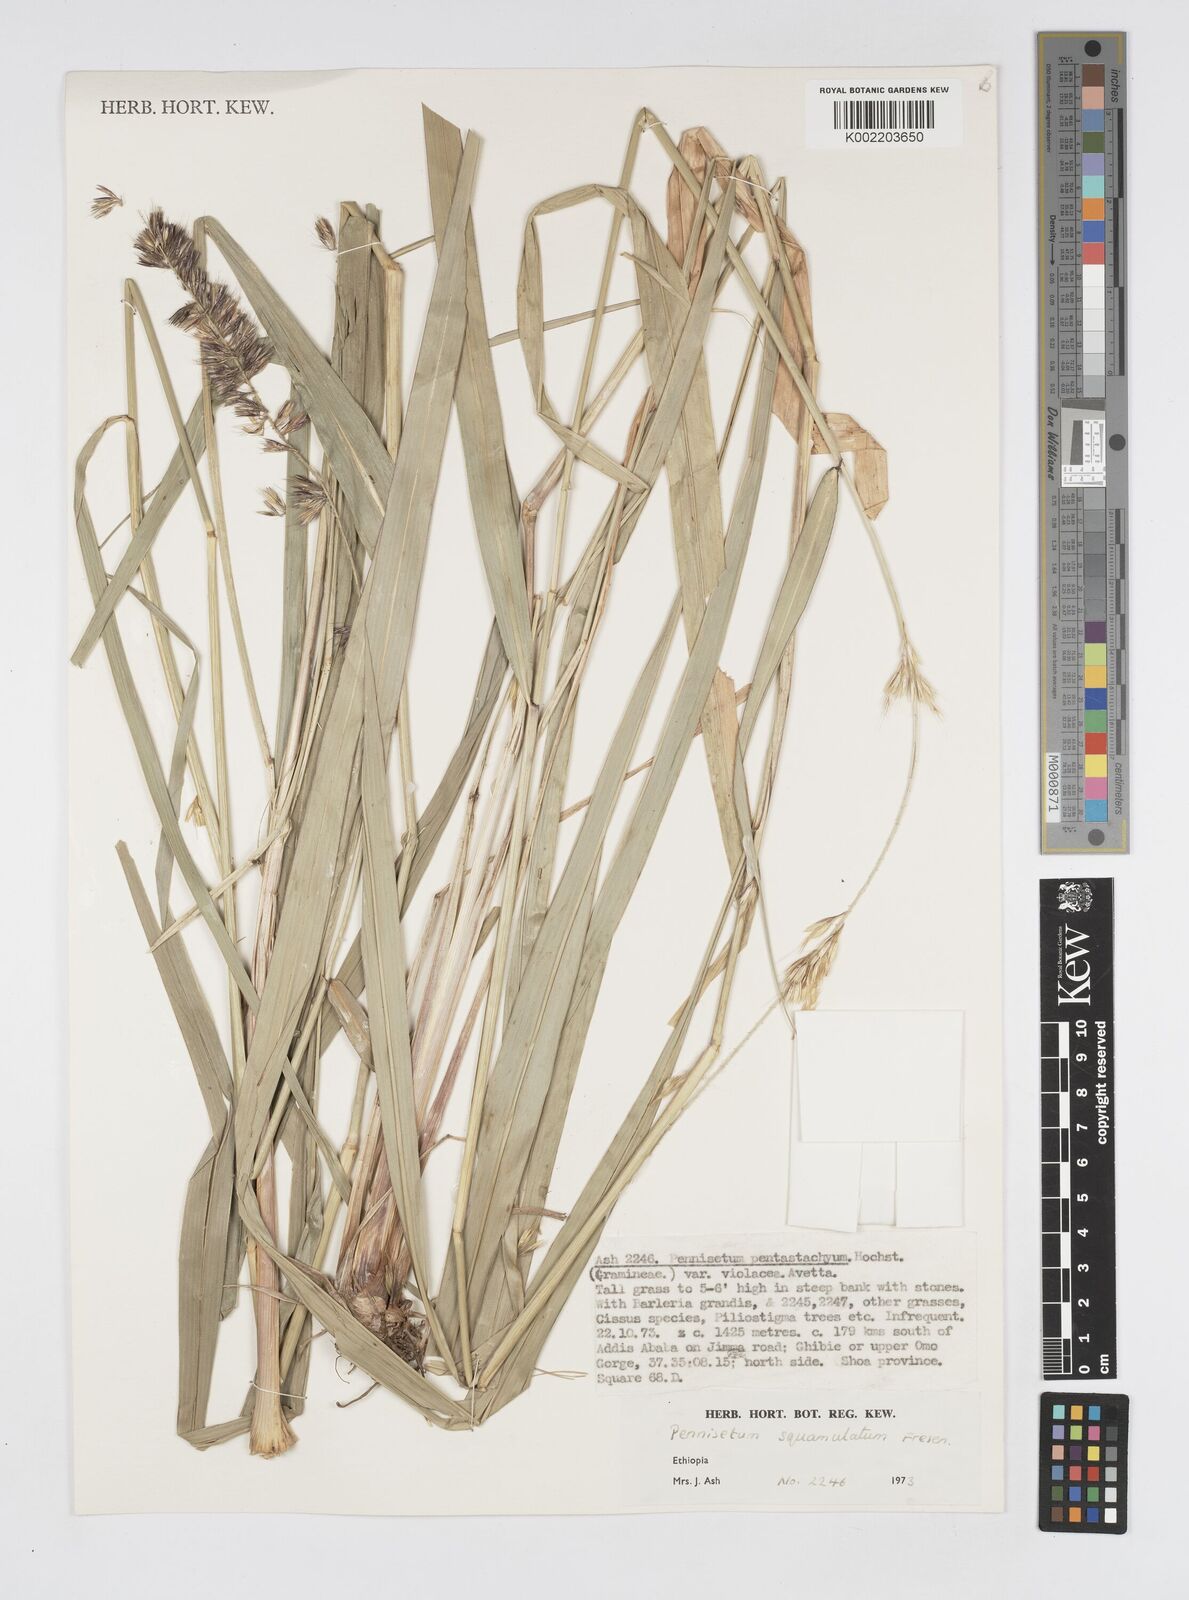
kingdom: Plantae
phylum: Tracheophyta
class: Liliopsida
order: Poales
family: Poaceae
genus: Cenchrus
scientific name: Cenchrus squamulatus
